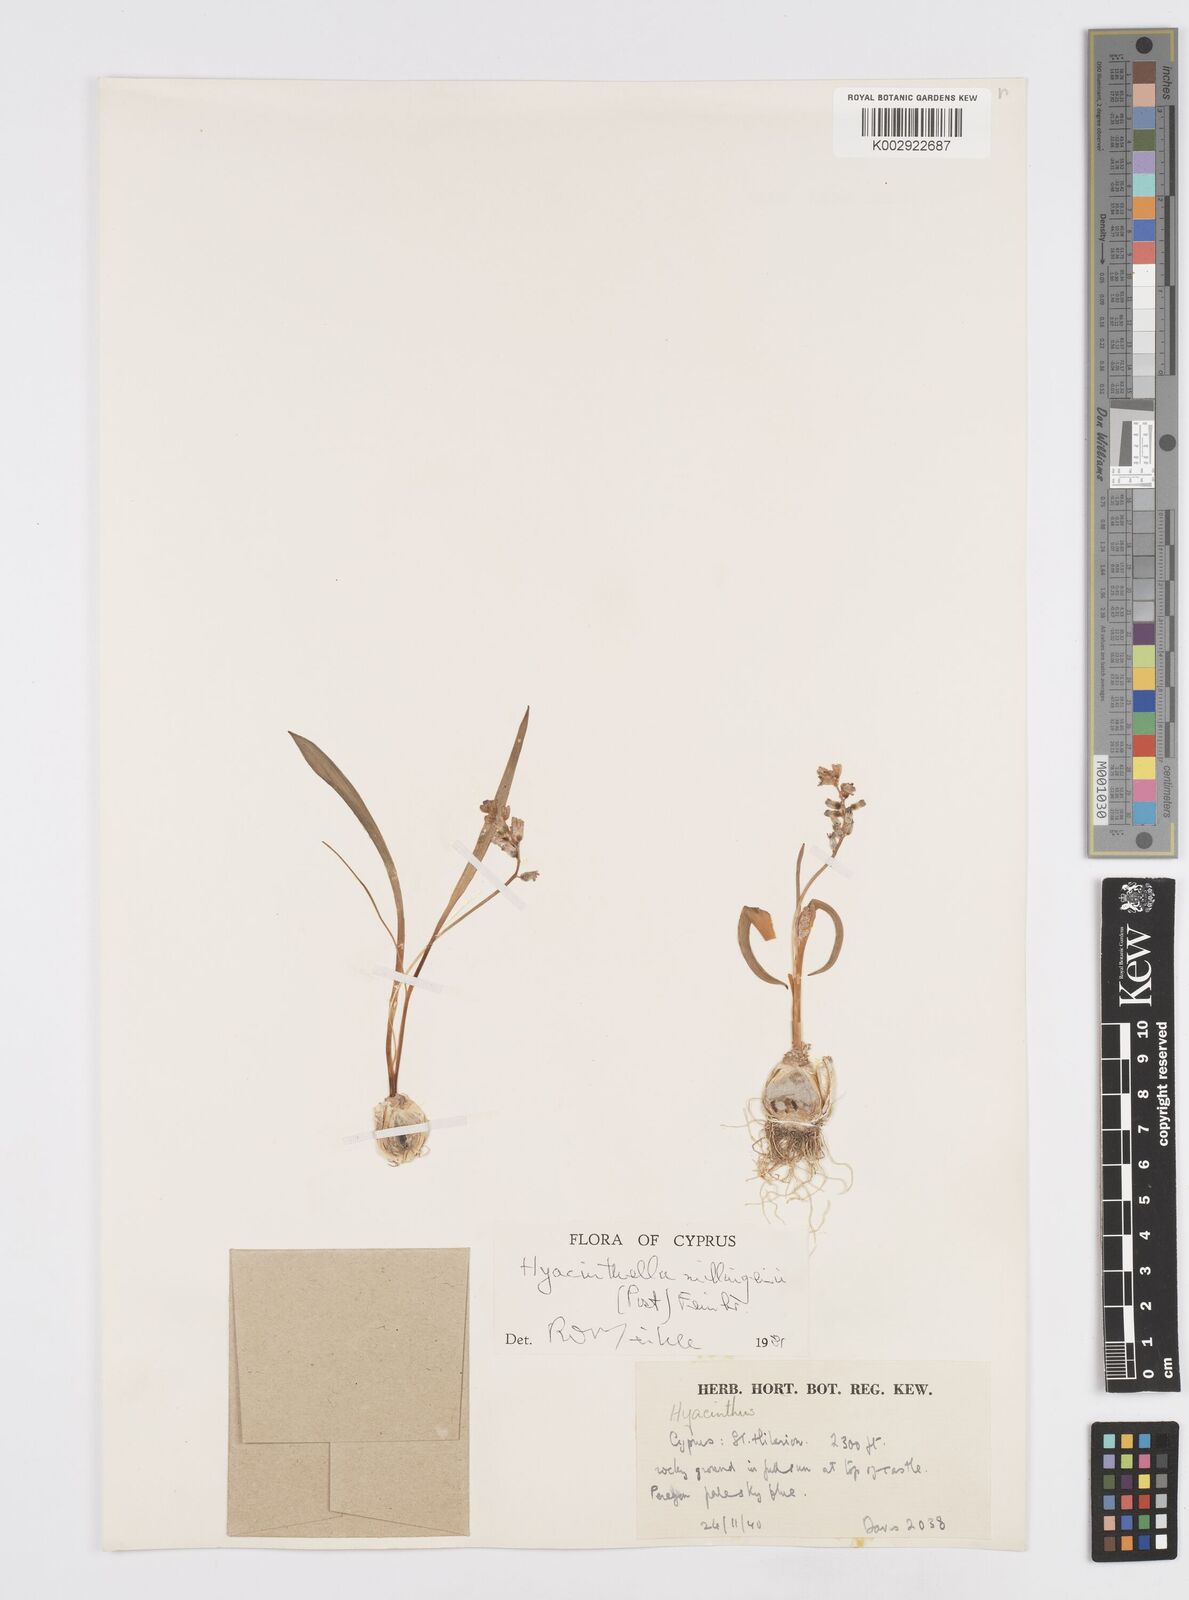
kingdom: Plantae
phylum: Tracheophyta
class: Liliopsida
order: Asparagales
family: Asparagaceae
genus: Hyacinthella
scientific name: Hyacinthella millingenii
